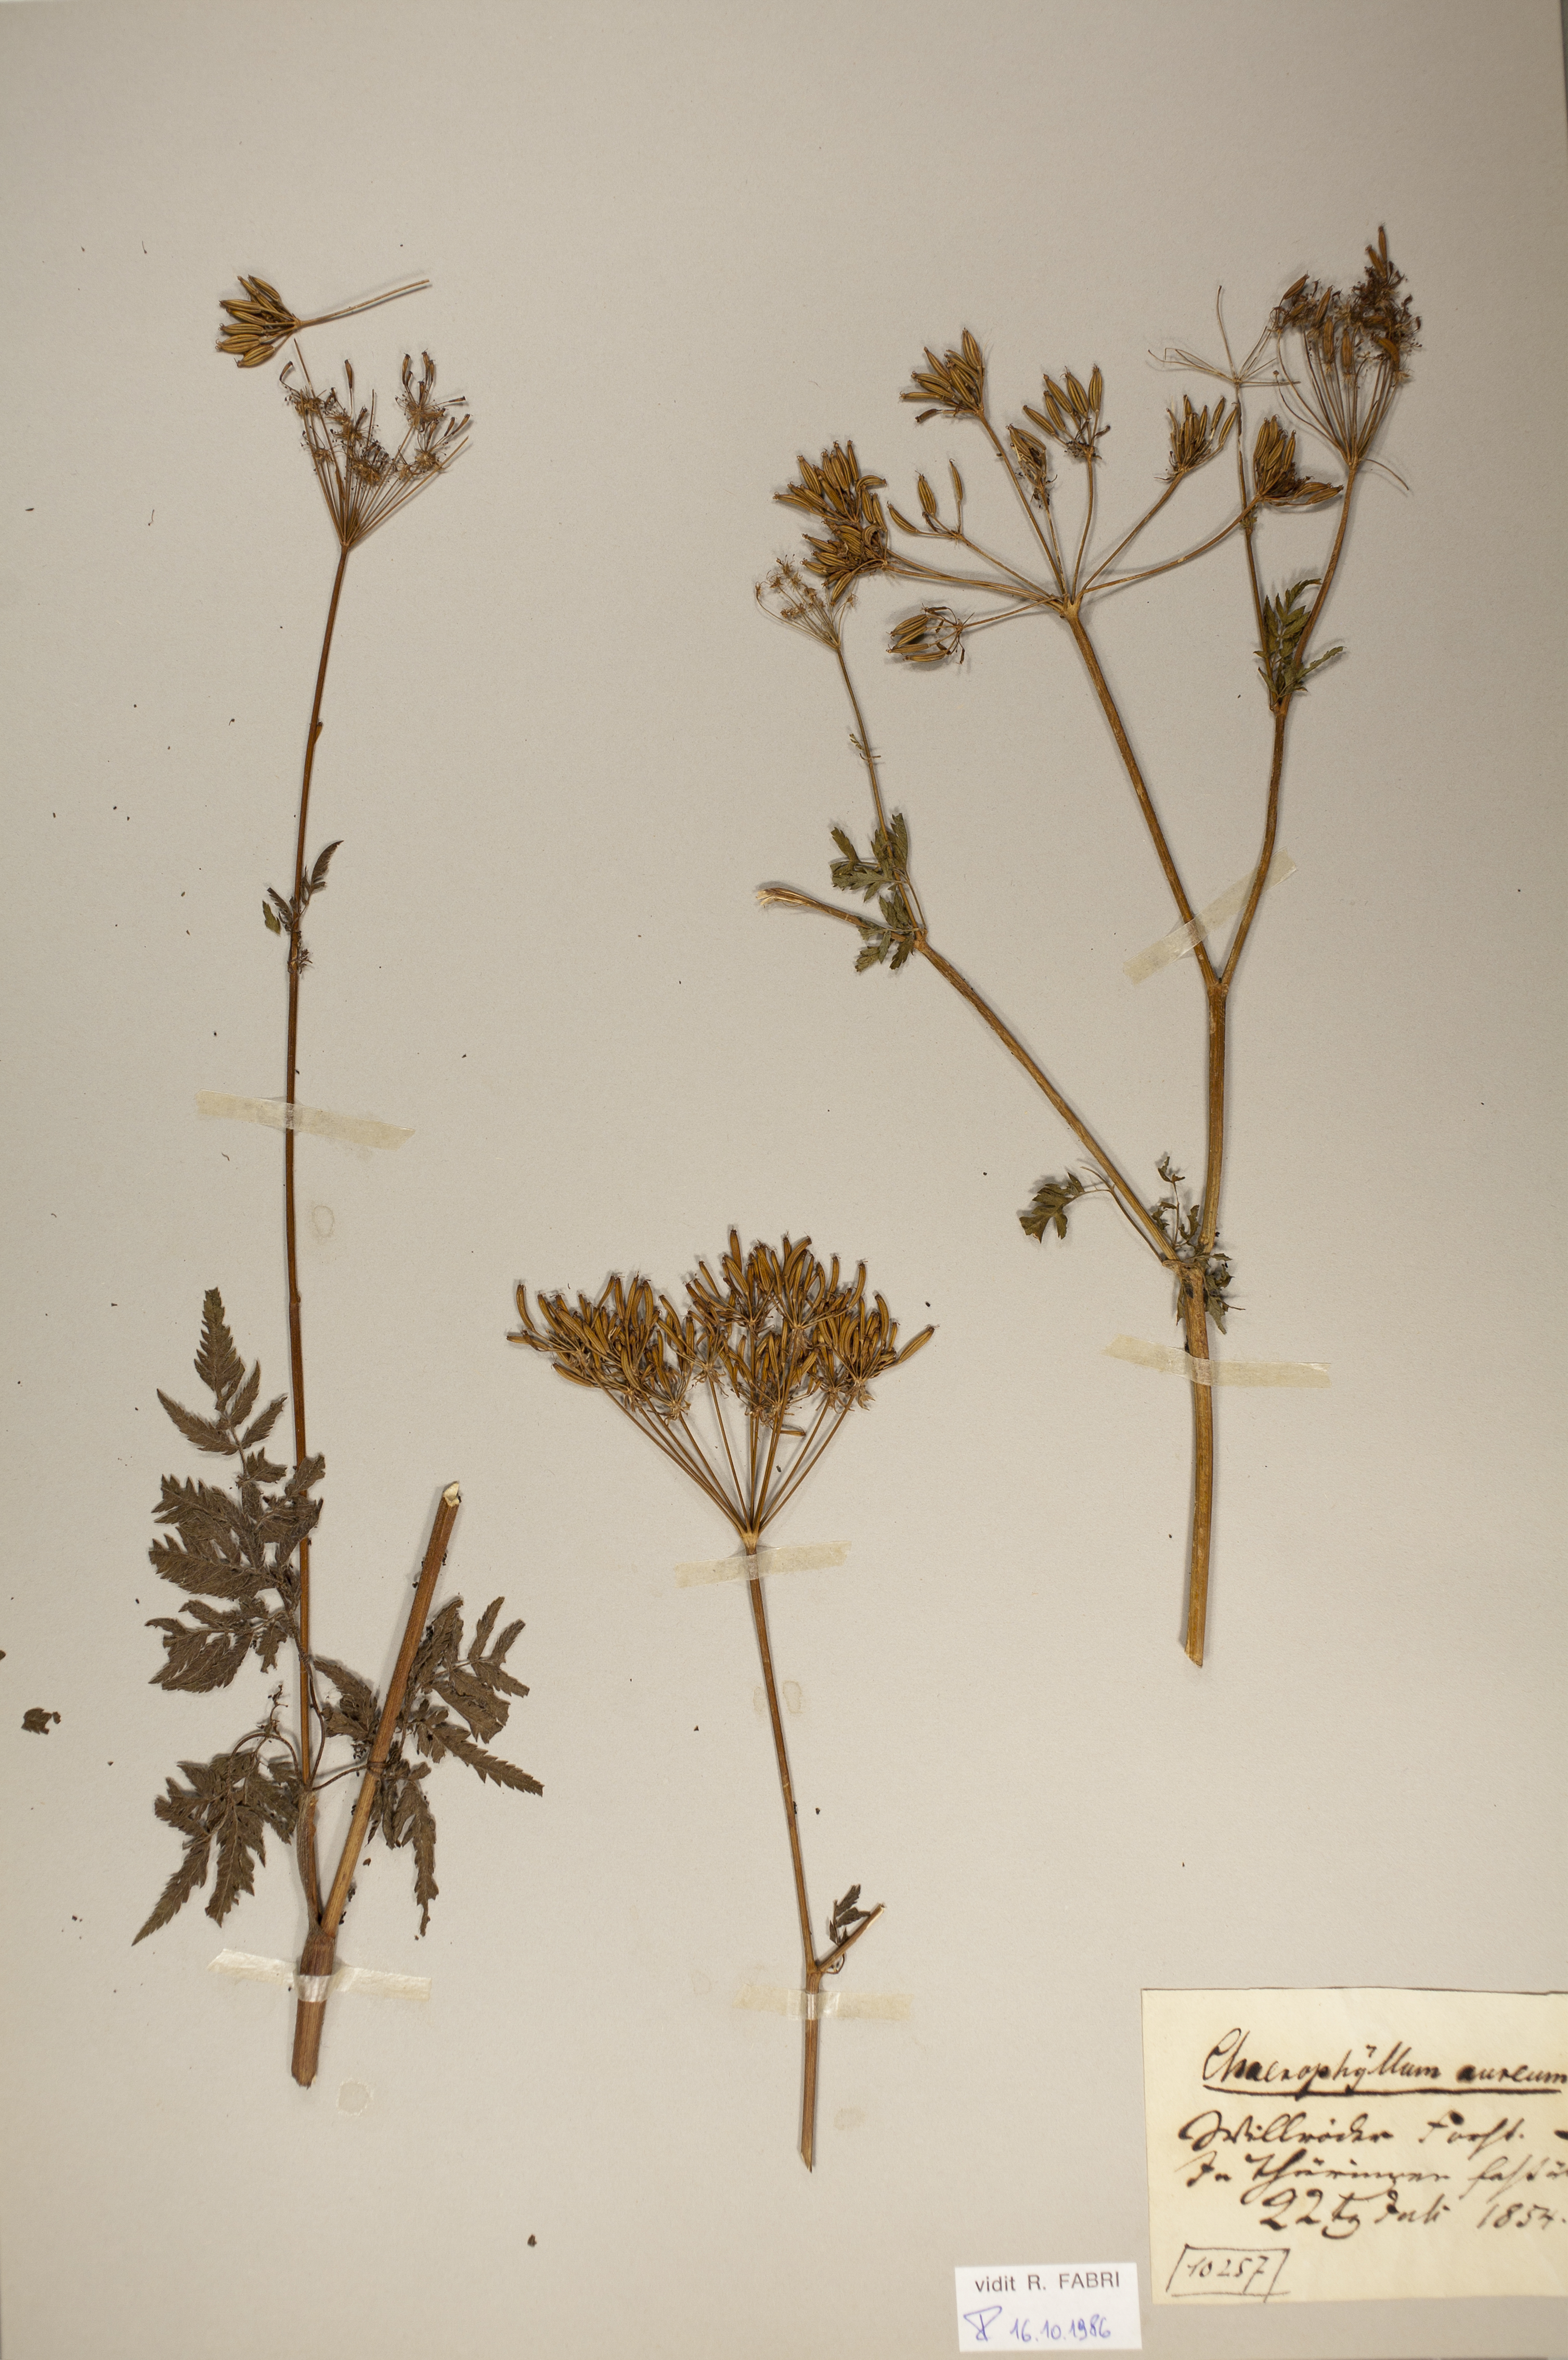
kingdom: Plantae
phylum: Tracheophyta
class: Magnoliopsida
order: Apiales
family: Apiaceae
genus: Chaerophyllum
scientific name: Chaerophyllum aureum
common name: Golden chervil
